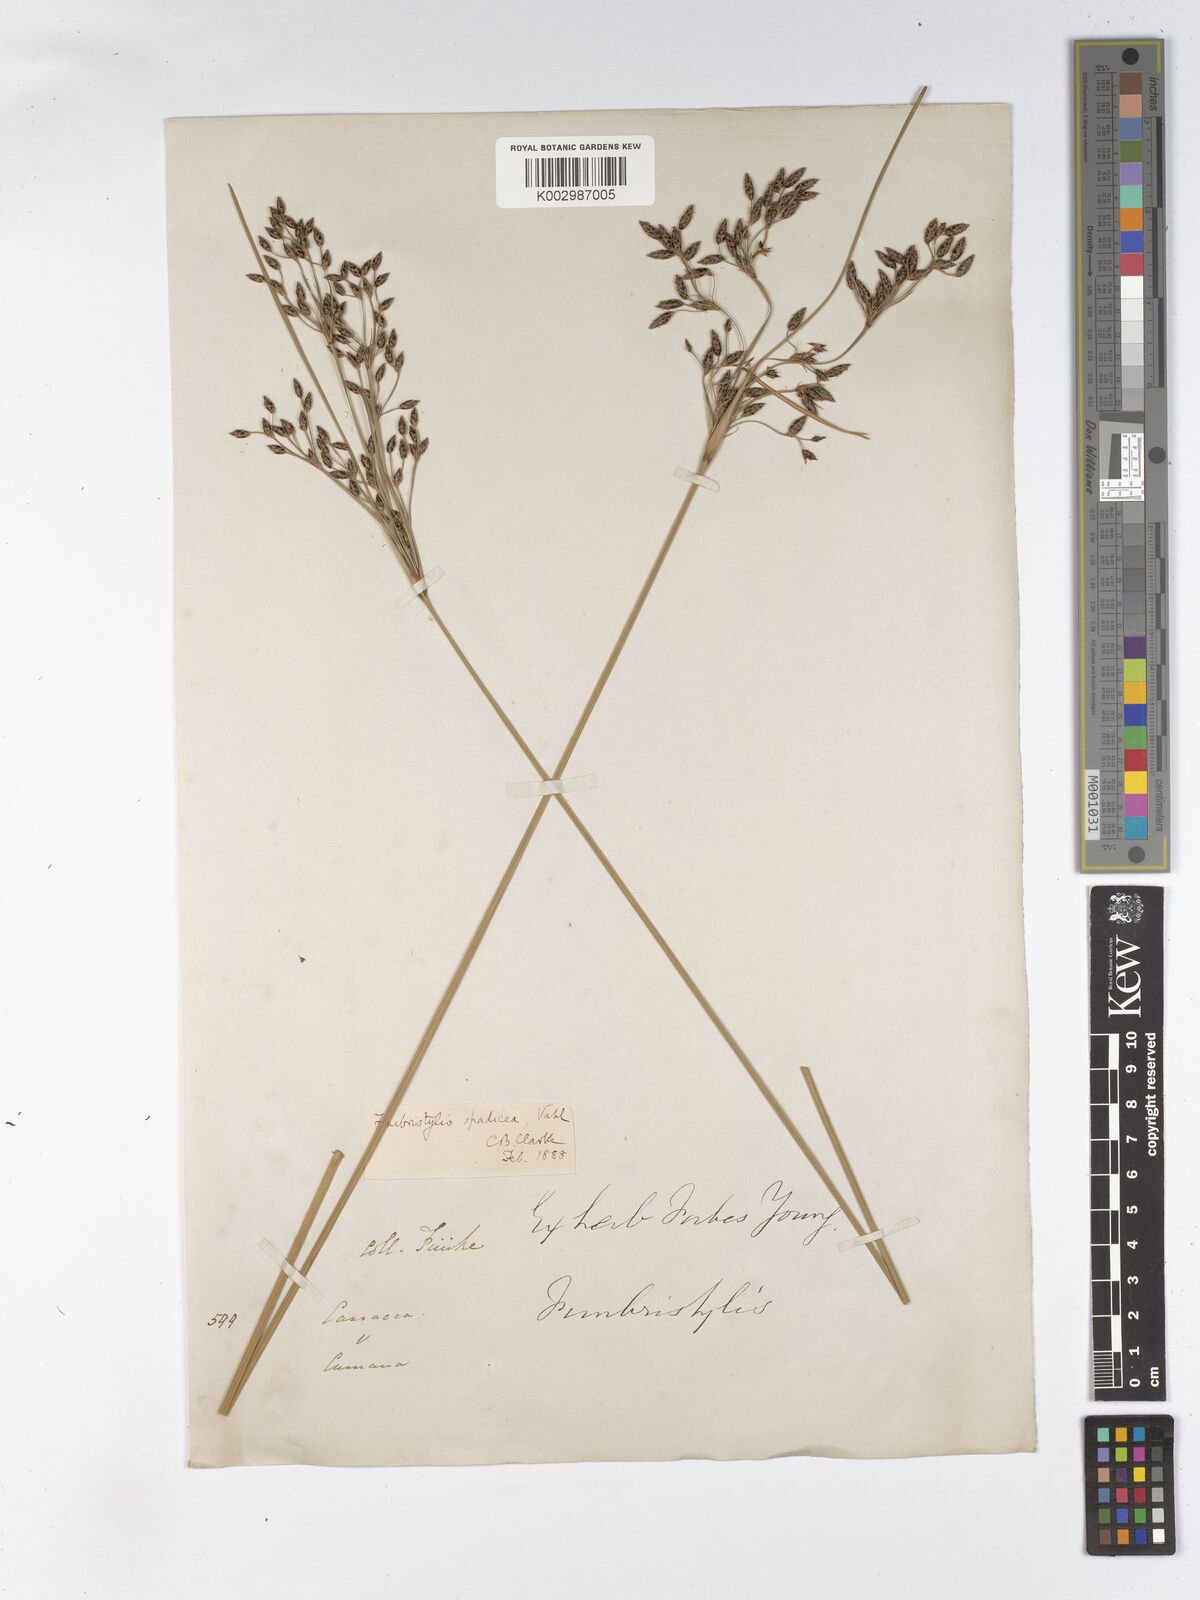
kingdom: Plantae
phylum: Tracheophyta
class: Liliopsida
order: Poales
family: Cyperaceae
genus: Fimbristylis
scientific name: Fimbristylis spadicea
